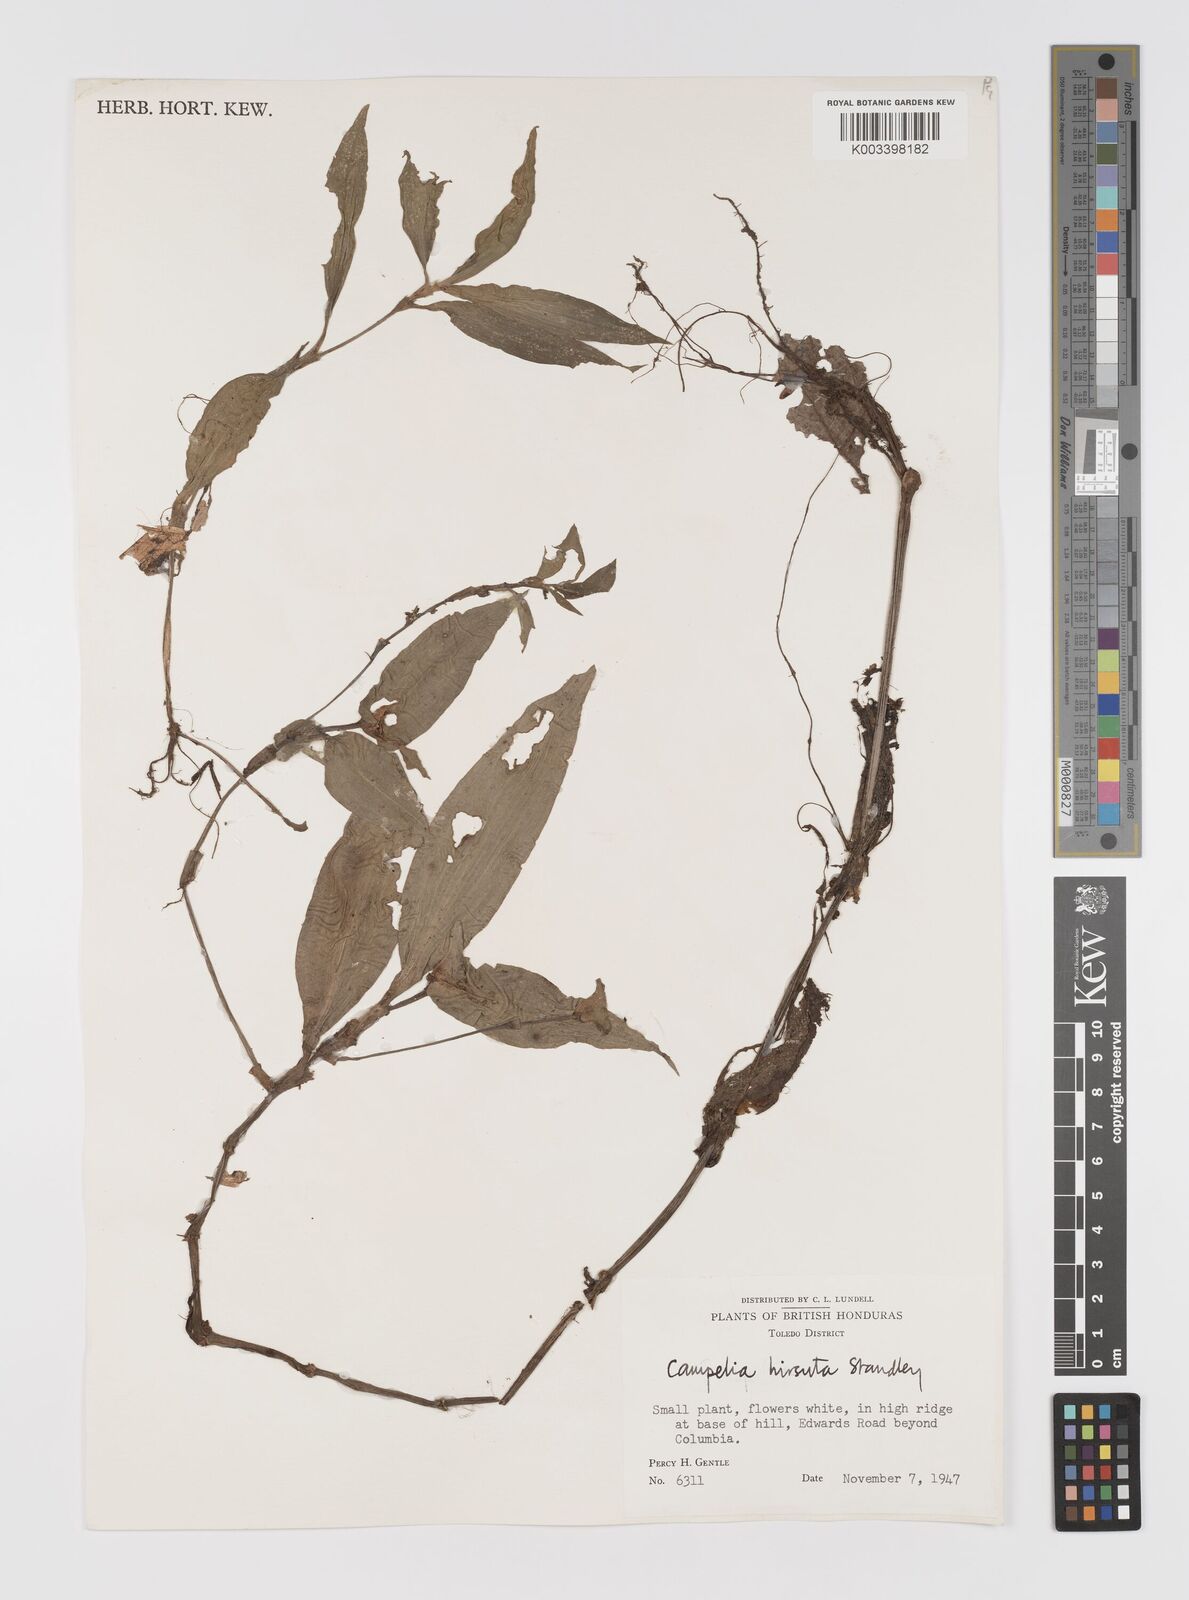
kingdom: Plantae
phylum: Tracheophyta
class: Liliopsida
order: Commelinales
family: Commelinaceae
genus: Tradescantia
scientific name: Tradescantia schippii
